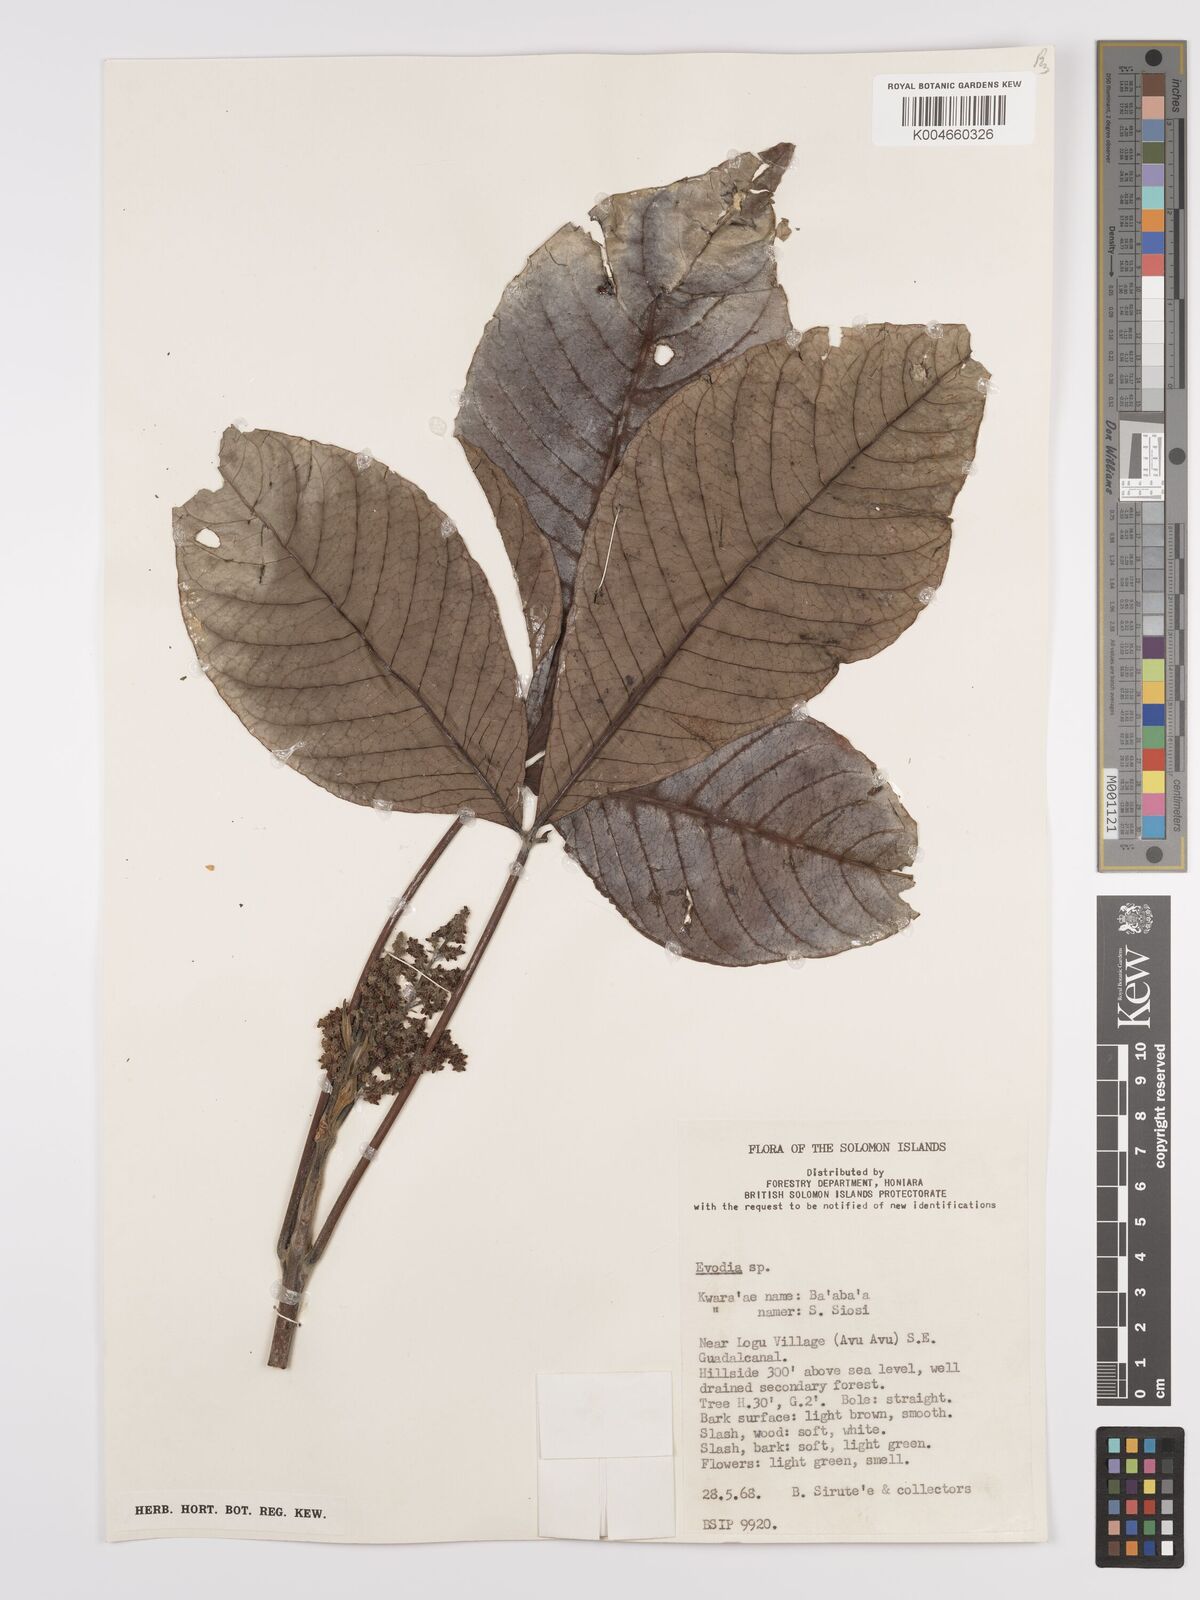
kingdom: Plantae
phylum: Tracheophyta
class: Magnoliopsida
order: Sapindales
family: Rutaceae
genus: Euodia
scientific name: Euodia
